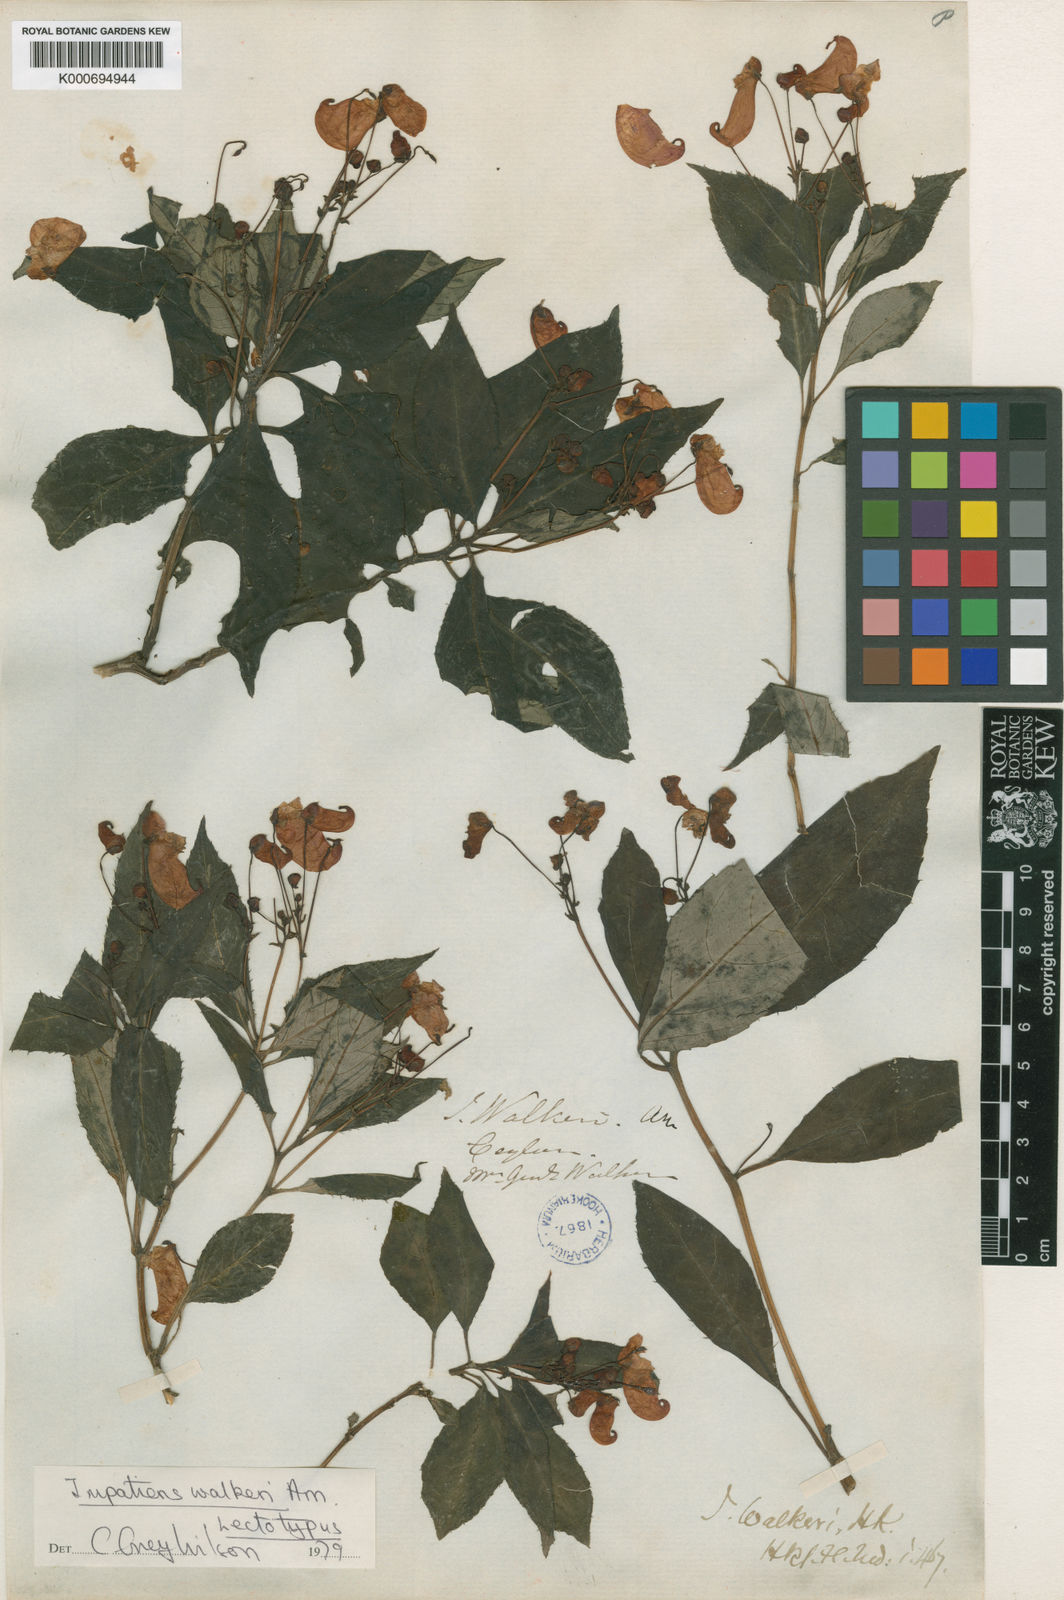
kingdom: Plantae
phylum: Tracheophyta
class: Magnoliopsida
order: Ericales
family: Balsaminaceae
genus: Impatiens
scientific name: Impatiens walkeri
